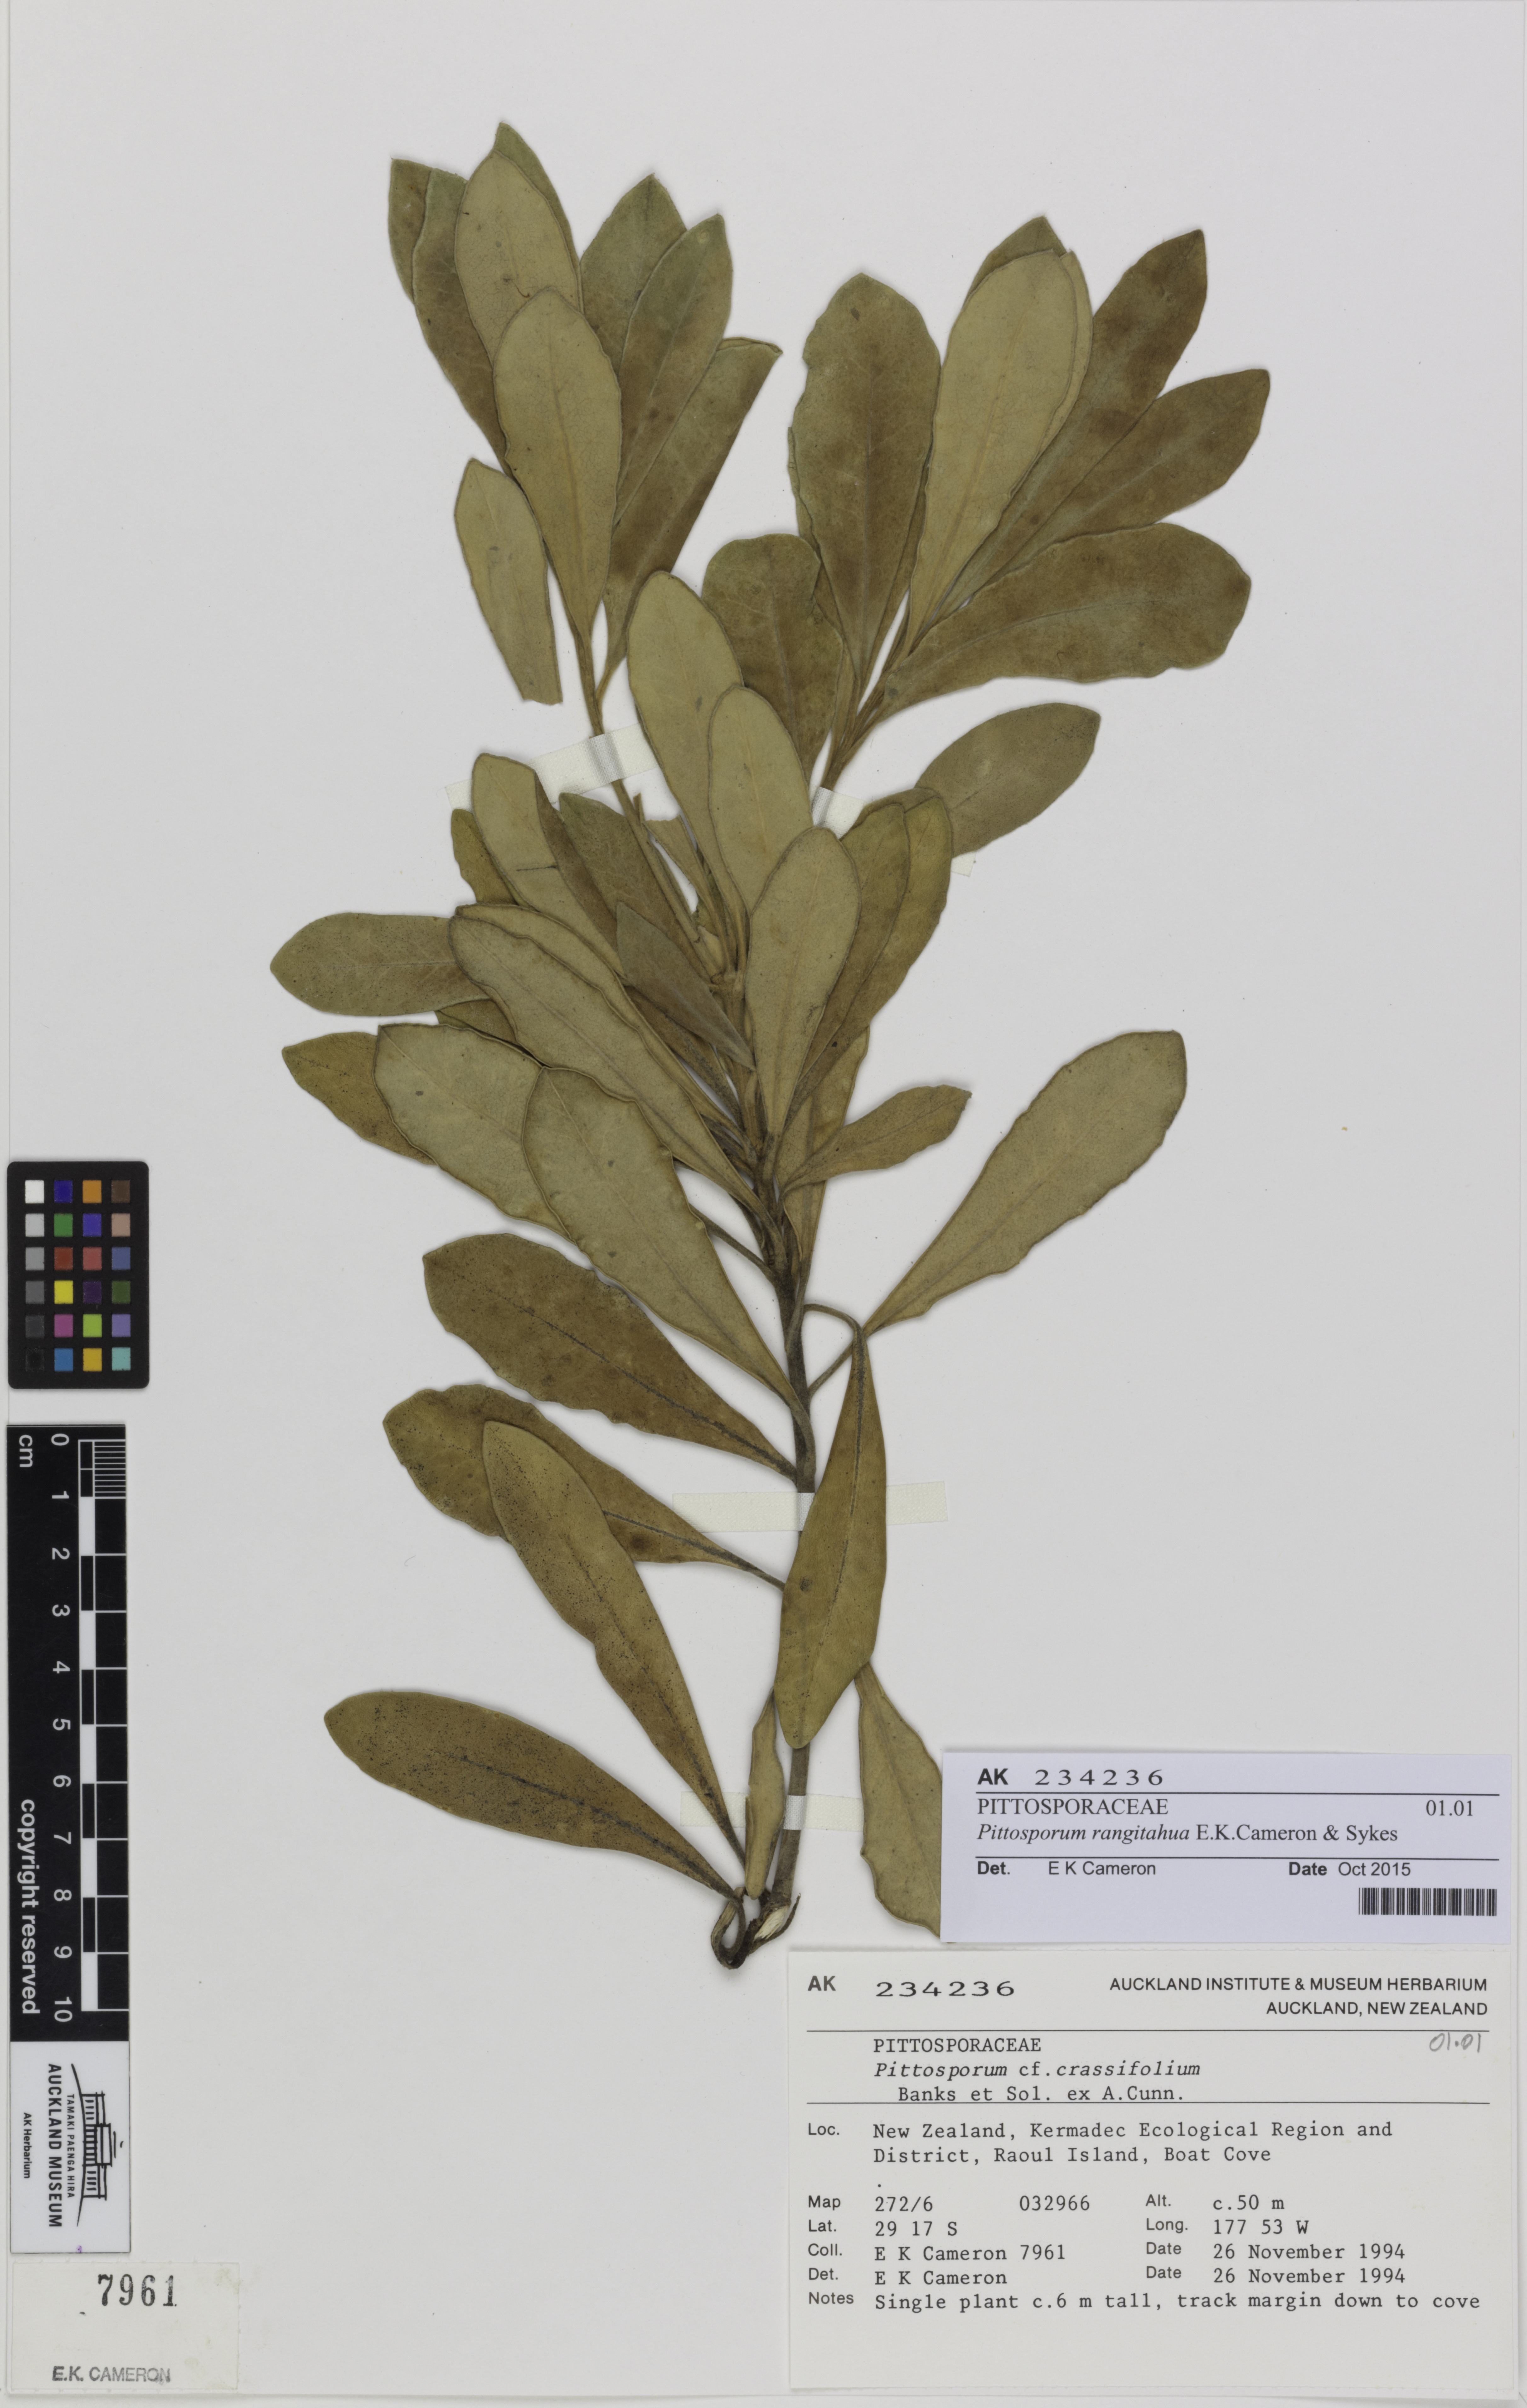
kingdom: Plantae
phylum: Tracheophyta
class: Magnoliopsida
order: Apiales
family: Pittosporaceae
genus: Pittosporum
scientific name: Pittosporum rangitahua
